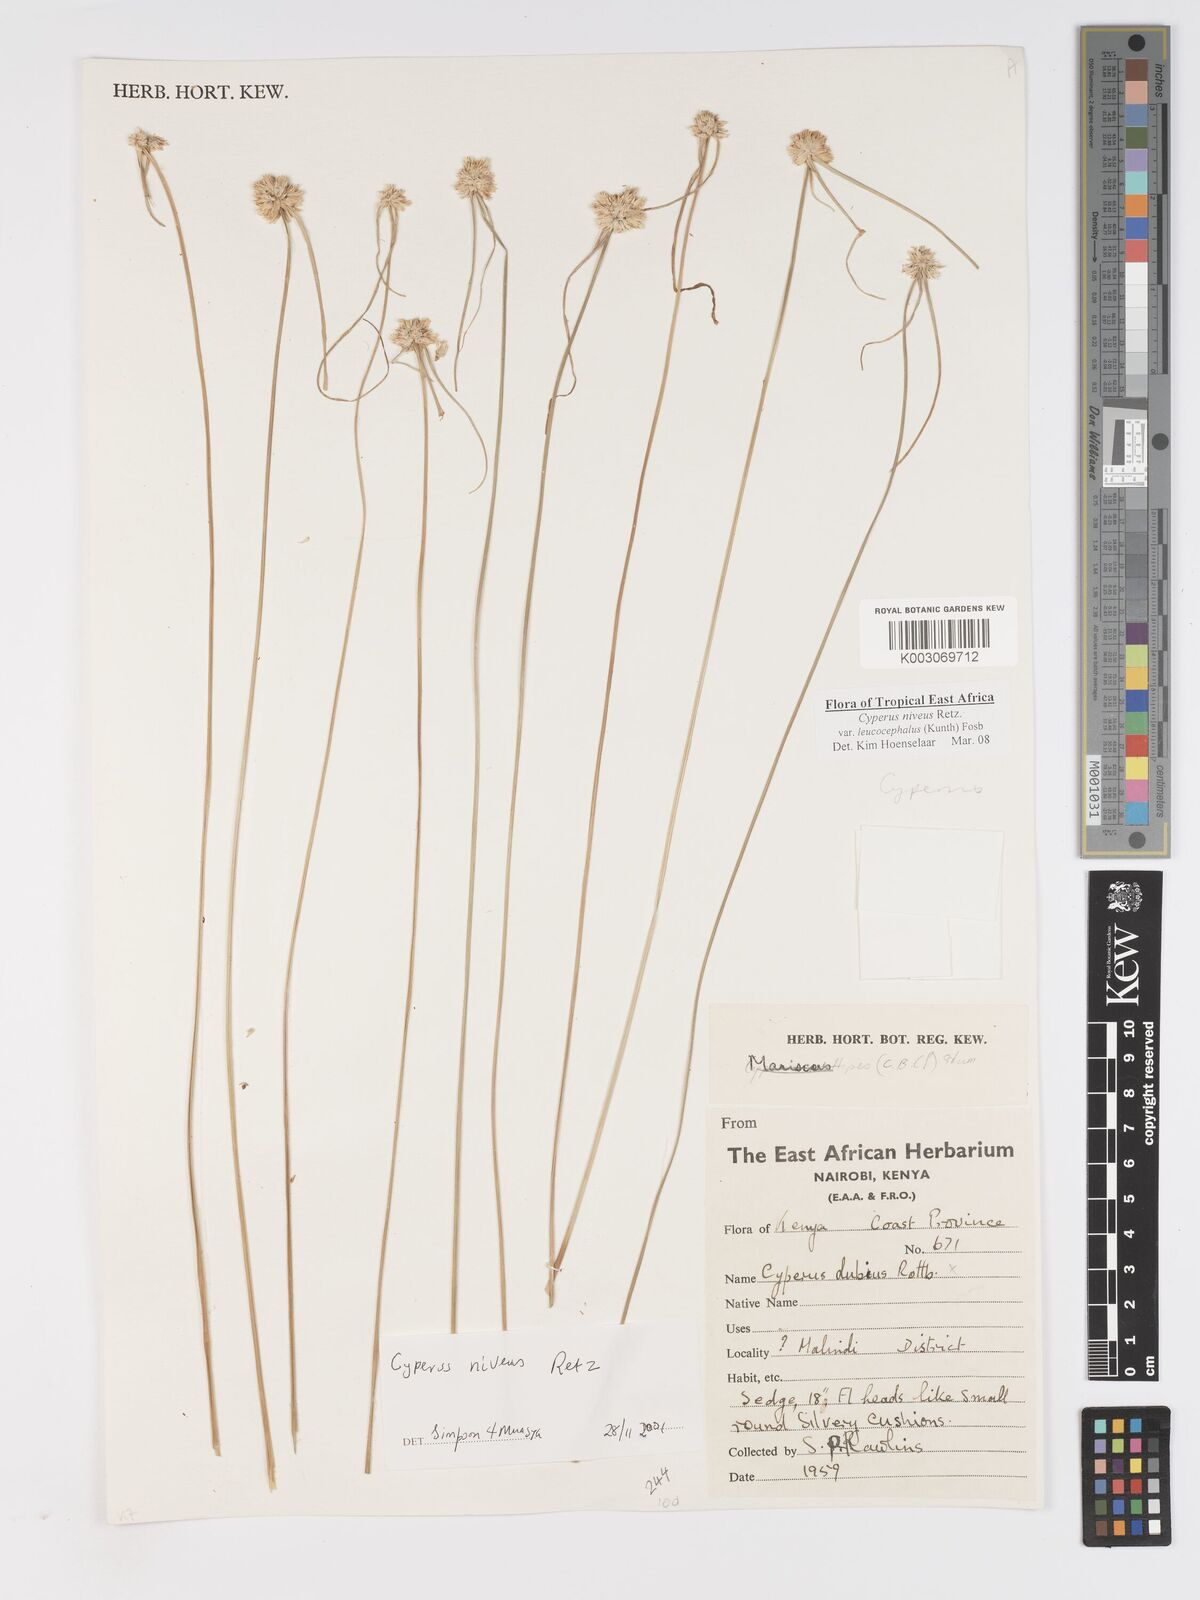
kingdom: Plantae
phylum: Tracheophyta
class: Liliopsida
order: Poales
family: Cyperaceae
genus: Cyperus
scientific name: Cyperus niveus
